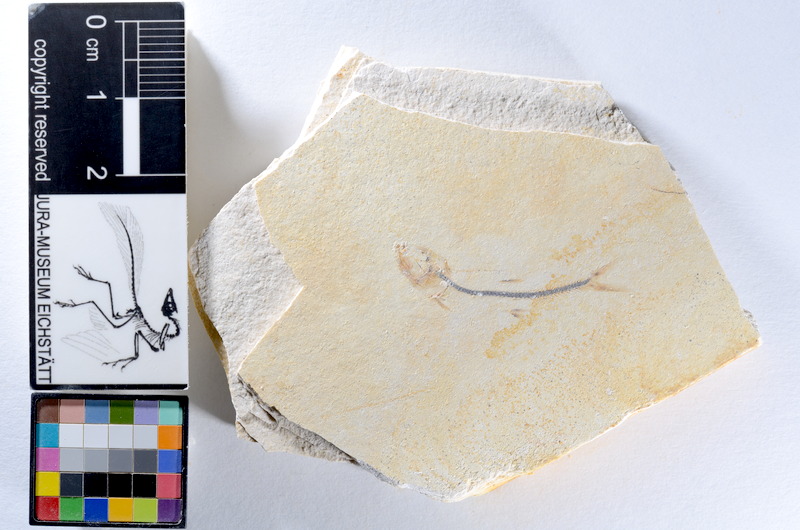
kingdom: Animalia
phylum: Chordata
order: Salmoniformes
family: Orthogonikleithridae
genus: Orthogonikleithrus
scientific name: Orthogonikleithrus hoelli
